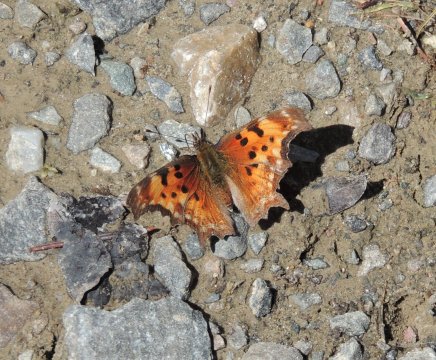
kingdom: Animalia
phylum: Arthropoda
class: Insecta
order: Lepidoptera
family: Nymphalidae
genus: Polygonia
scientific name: Polygonia gracilis
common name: Hoary Comma
